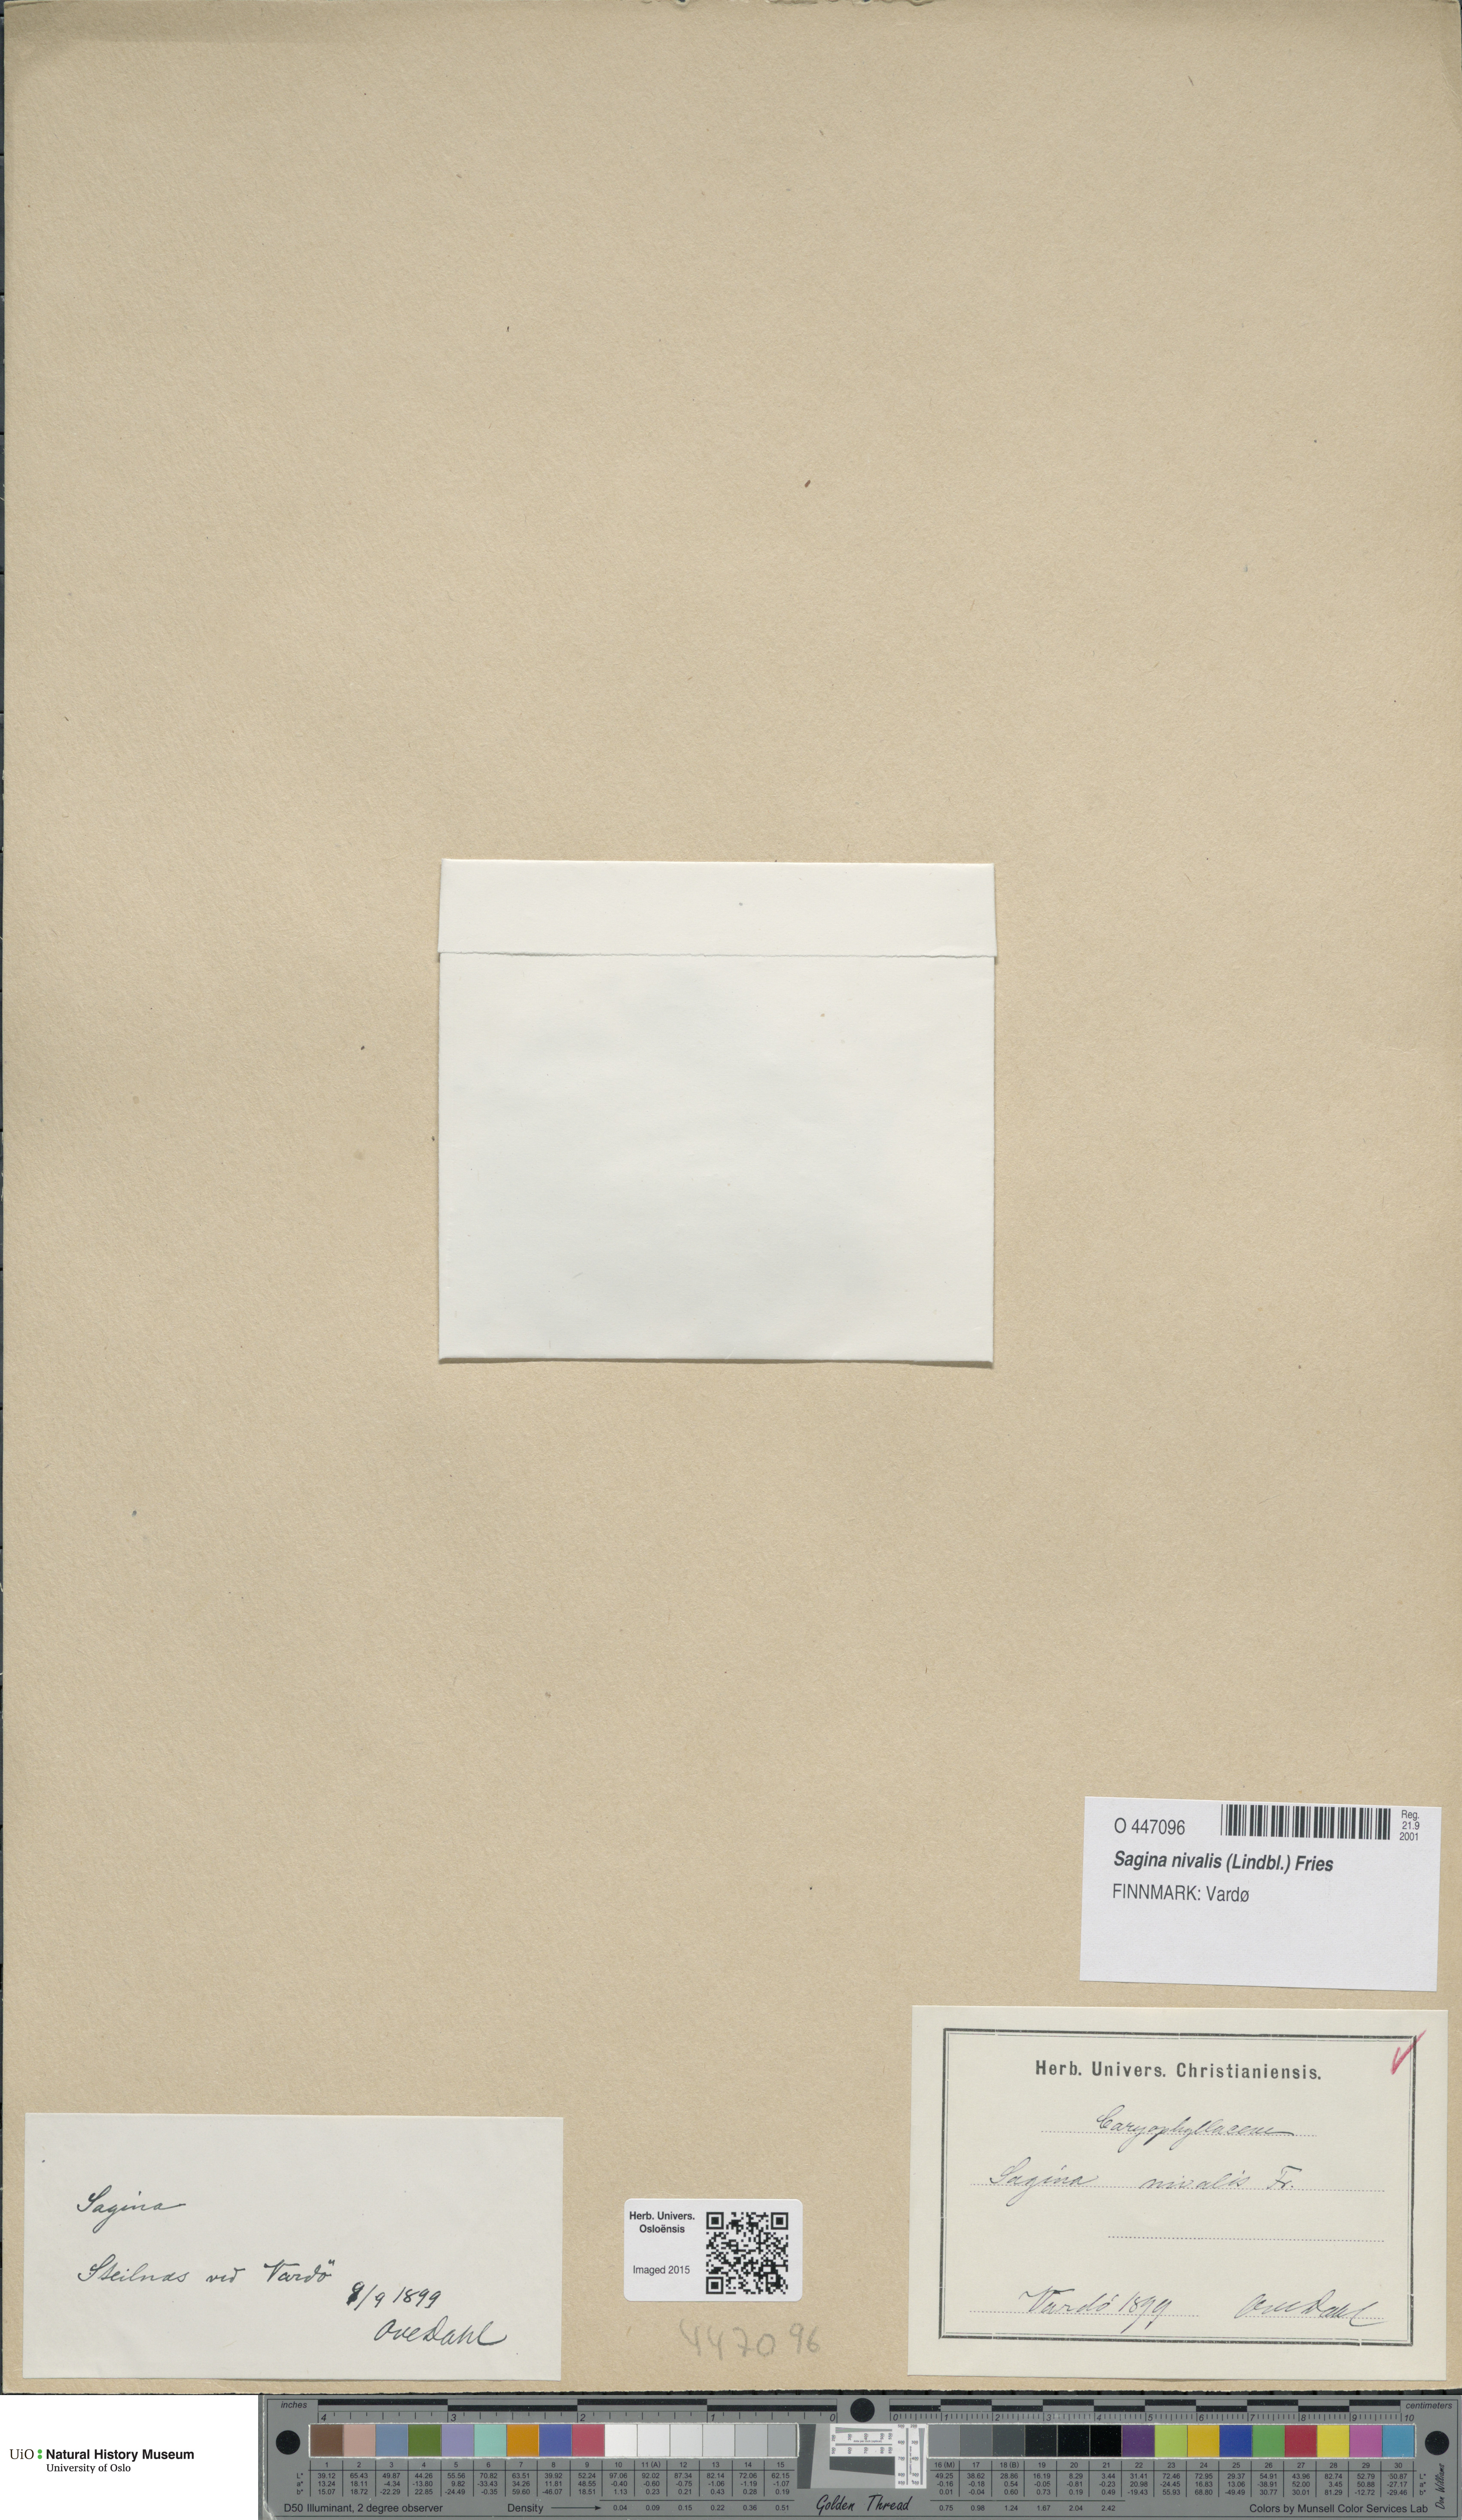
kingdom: Plantae
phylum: Tracheophyta
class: Magnoliopsida
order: Caryophyllales
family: Caryophyllaceae
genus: Sagina
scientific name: Sagina nivalis
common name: Snow pearlwort
